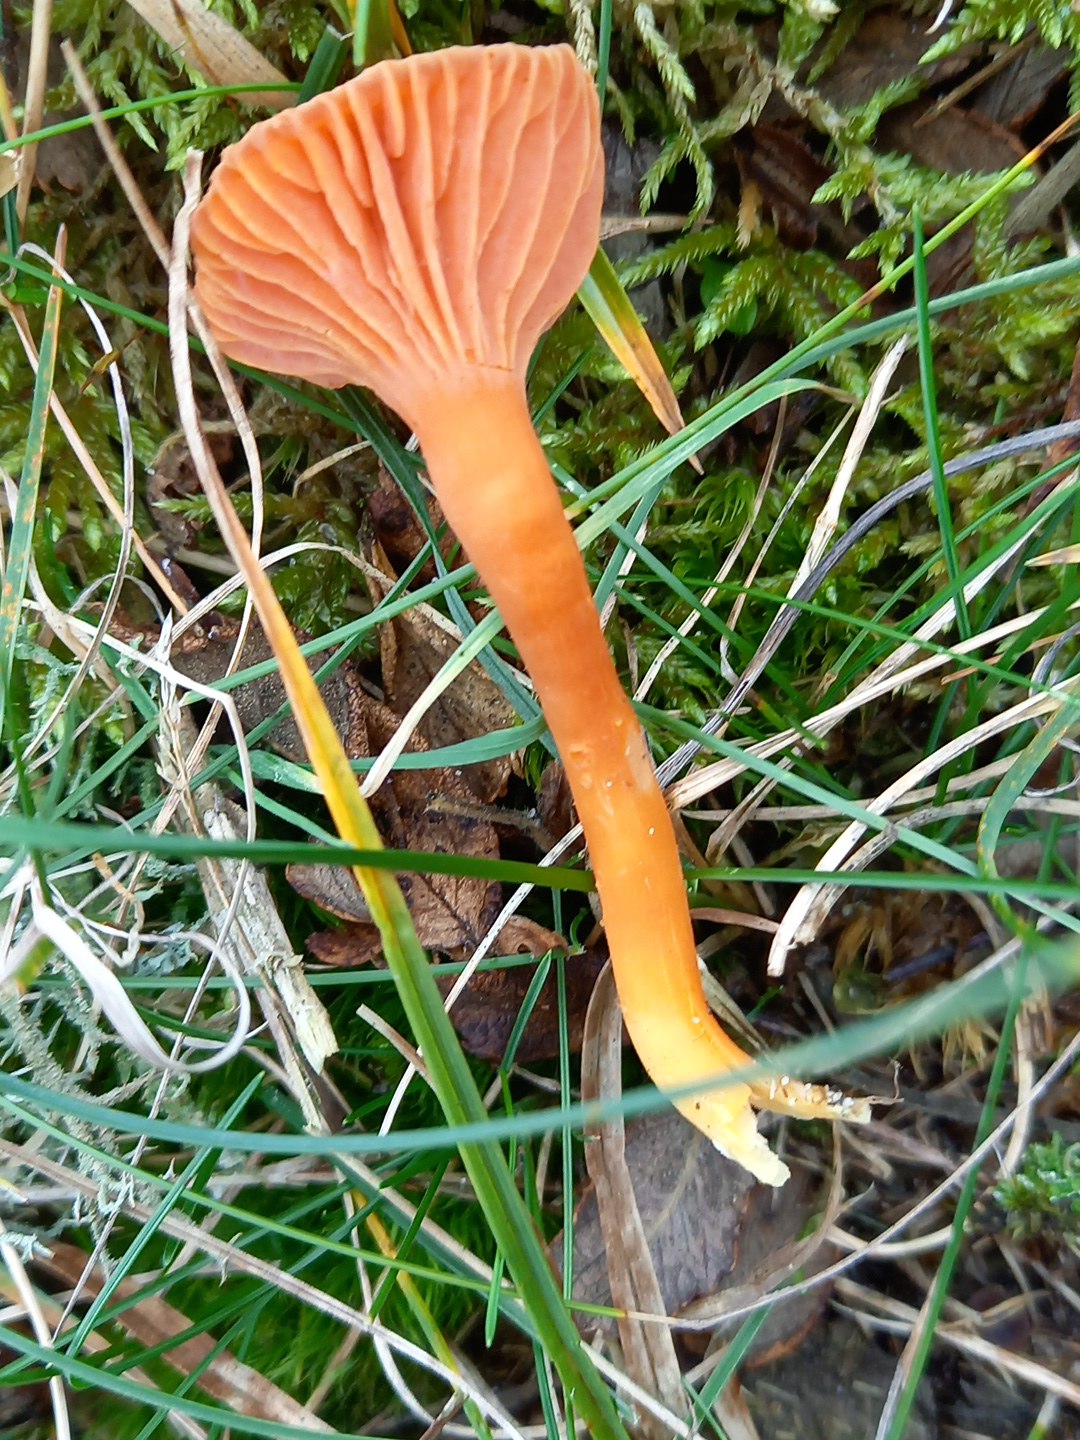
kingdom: Fungi
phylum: Basidiomycota
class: Agaricomycetes
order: Agaricales
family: Hygrophoraceae
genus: Hygrocybe
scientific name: Hygrocybe
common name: vokshat
